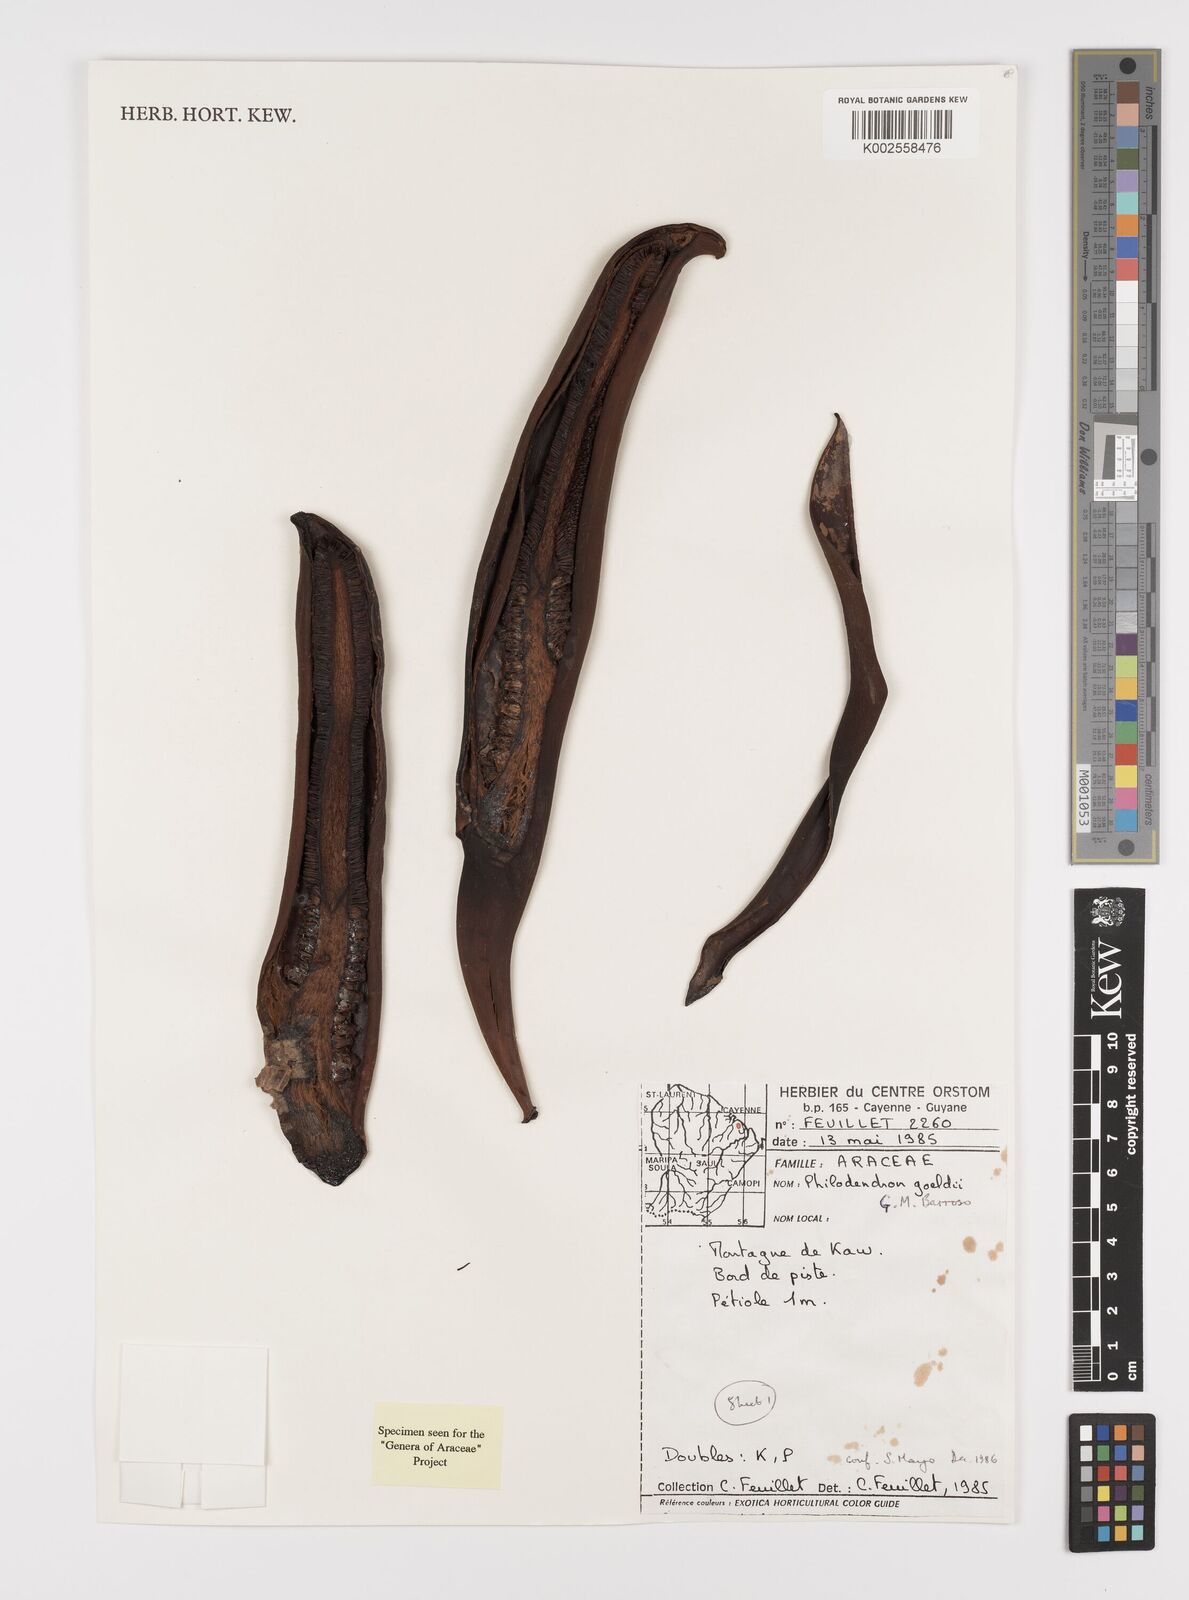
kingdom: Plantae
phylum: Tracheophyta
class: Liliopsida
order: Alismatales
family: Araceae
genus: Thaumatophyllum
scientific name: Thaumatophyllum spruceanum
